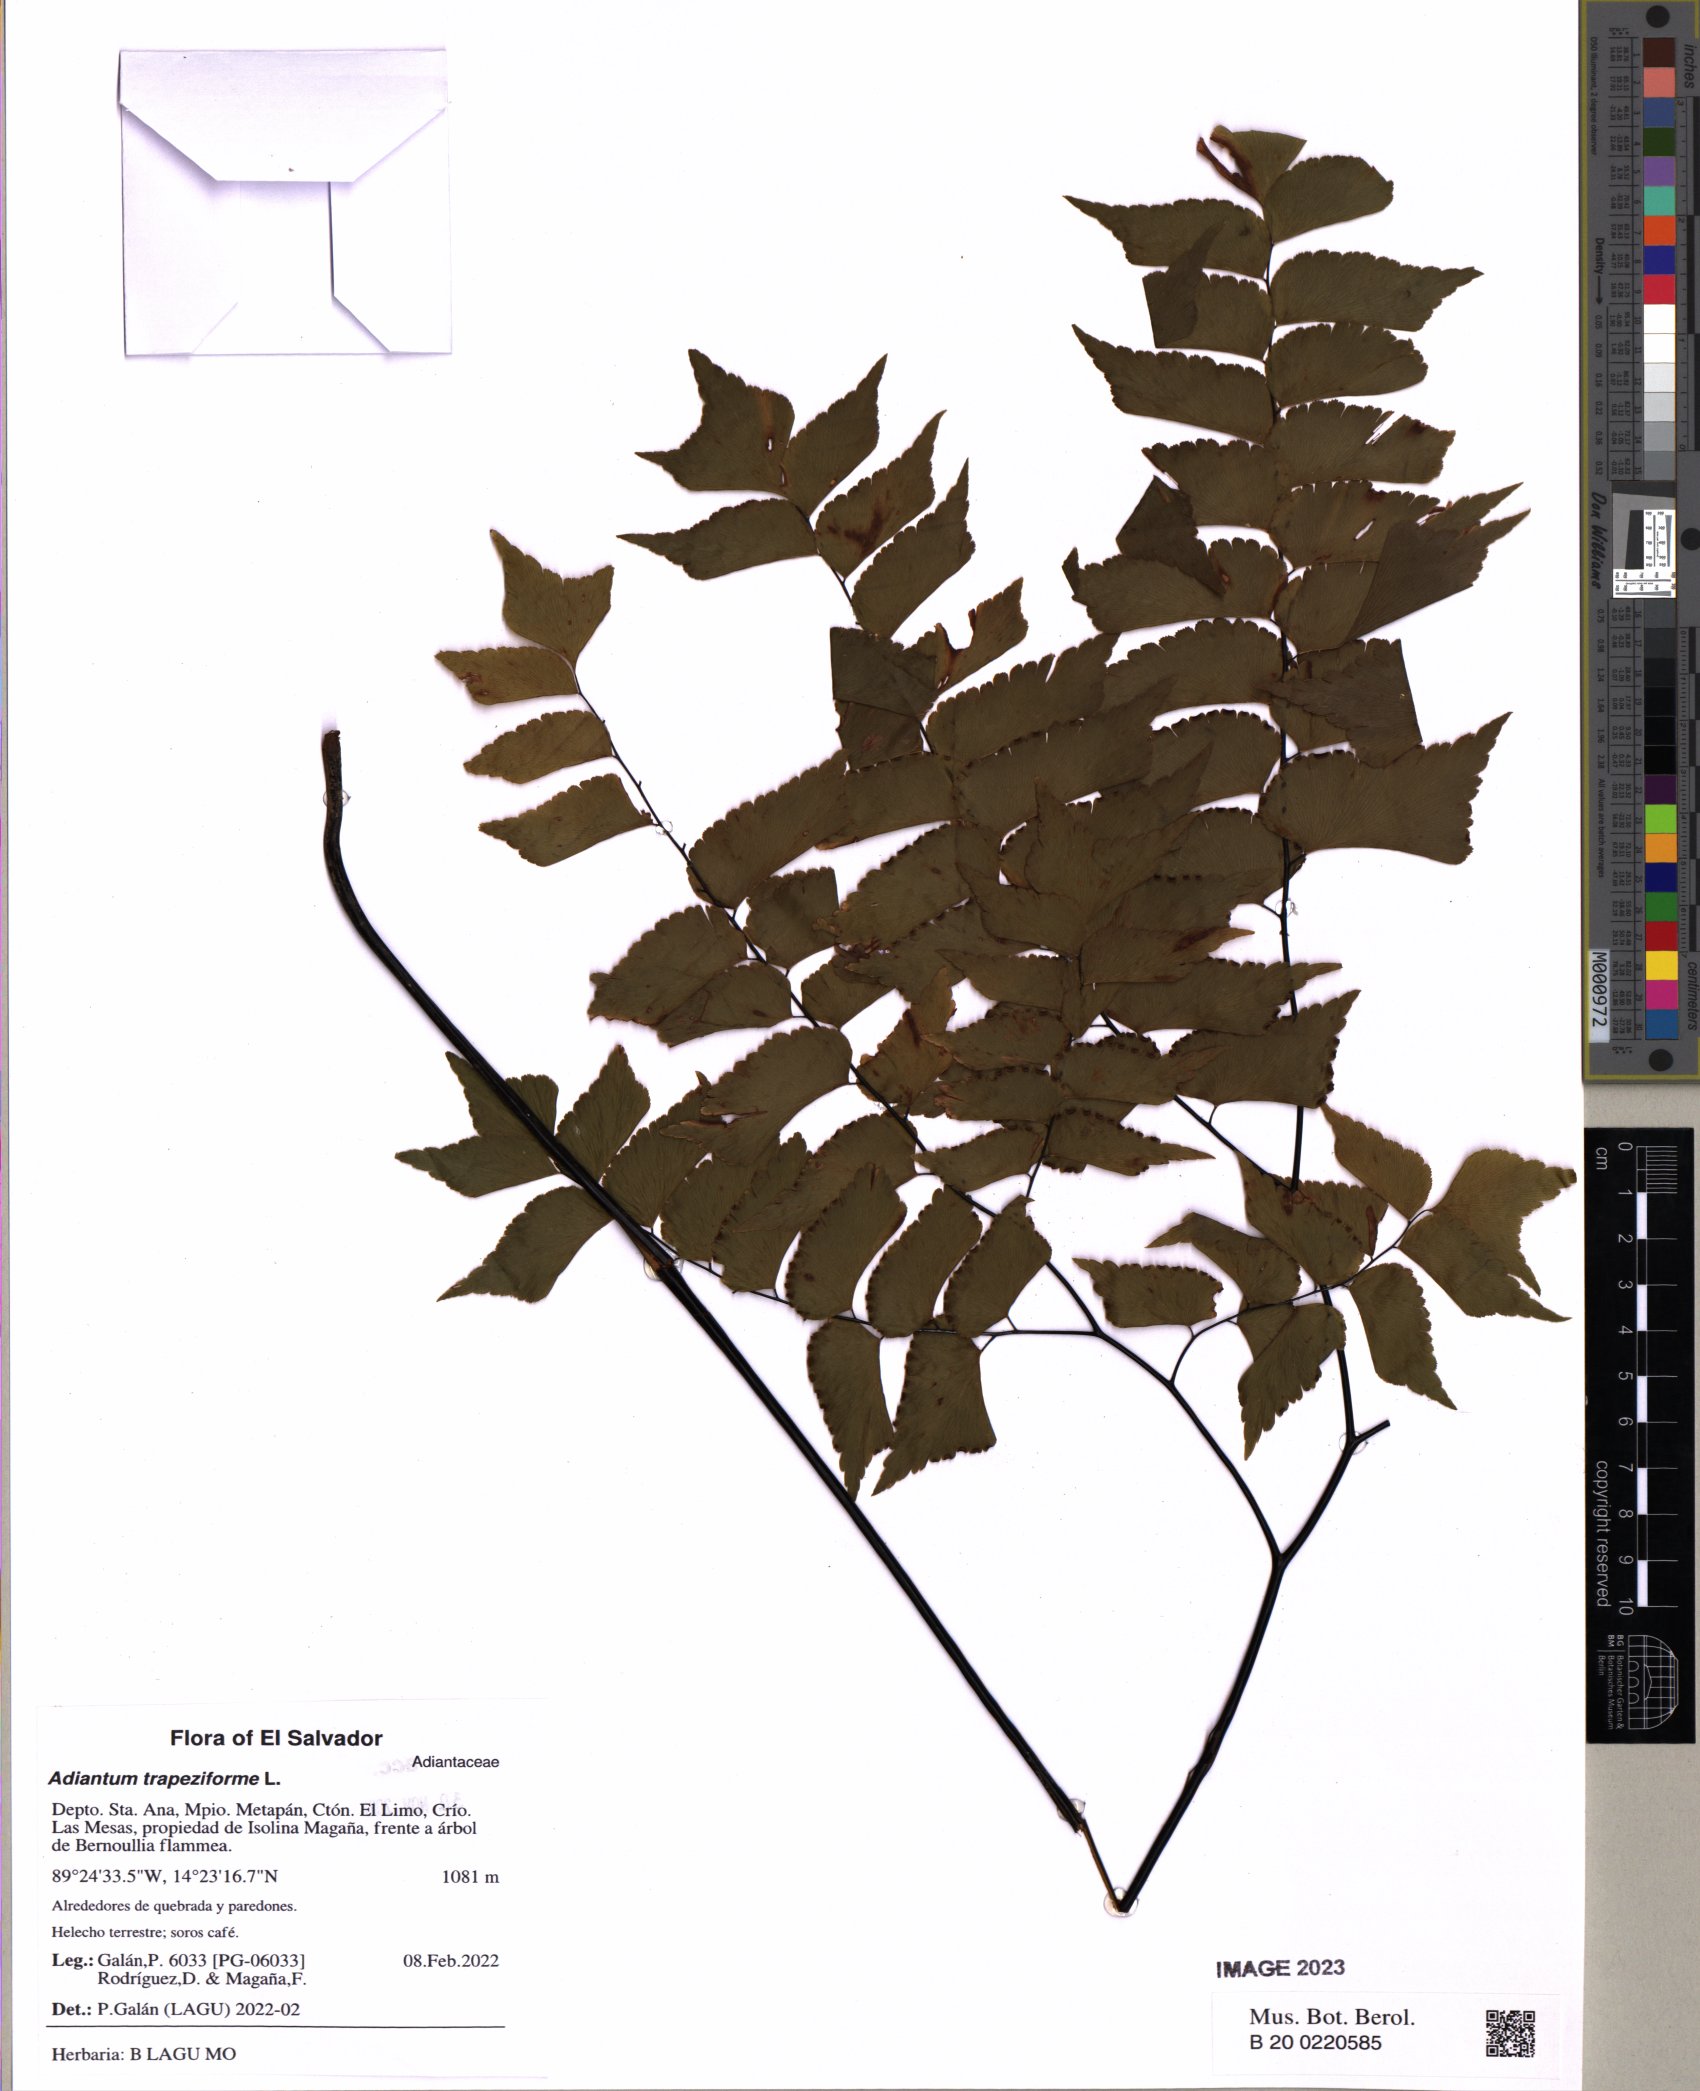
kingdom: Plantae
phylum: Tracheophyta
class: Polypodiopsida
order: Polypodiales
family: Pteridaceae
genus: Adiantum
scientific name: Adiantum trapeziforme
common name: Diamond maidenhair
